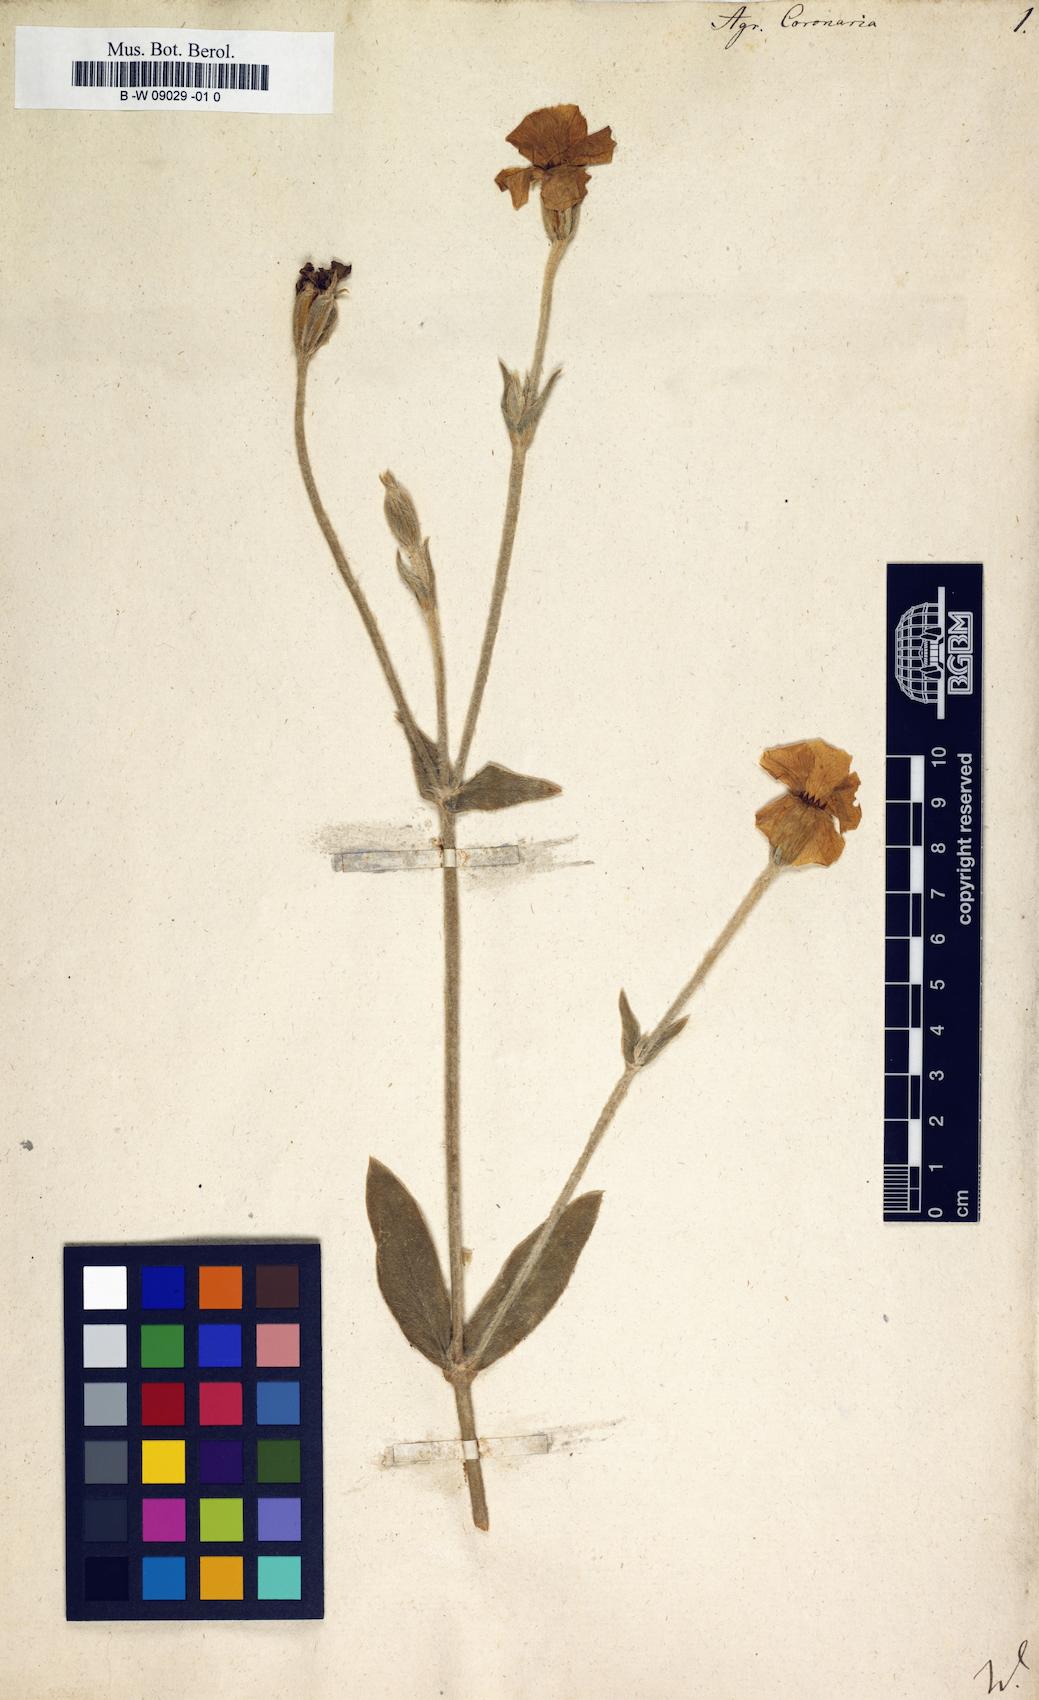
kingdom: Plantae
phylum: Tracheophyta
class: Magnoliopsida
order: Caryophyllales
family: Caryophyllaceae
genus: Silene
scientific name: Silene coronaria
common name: Rose campion
